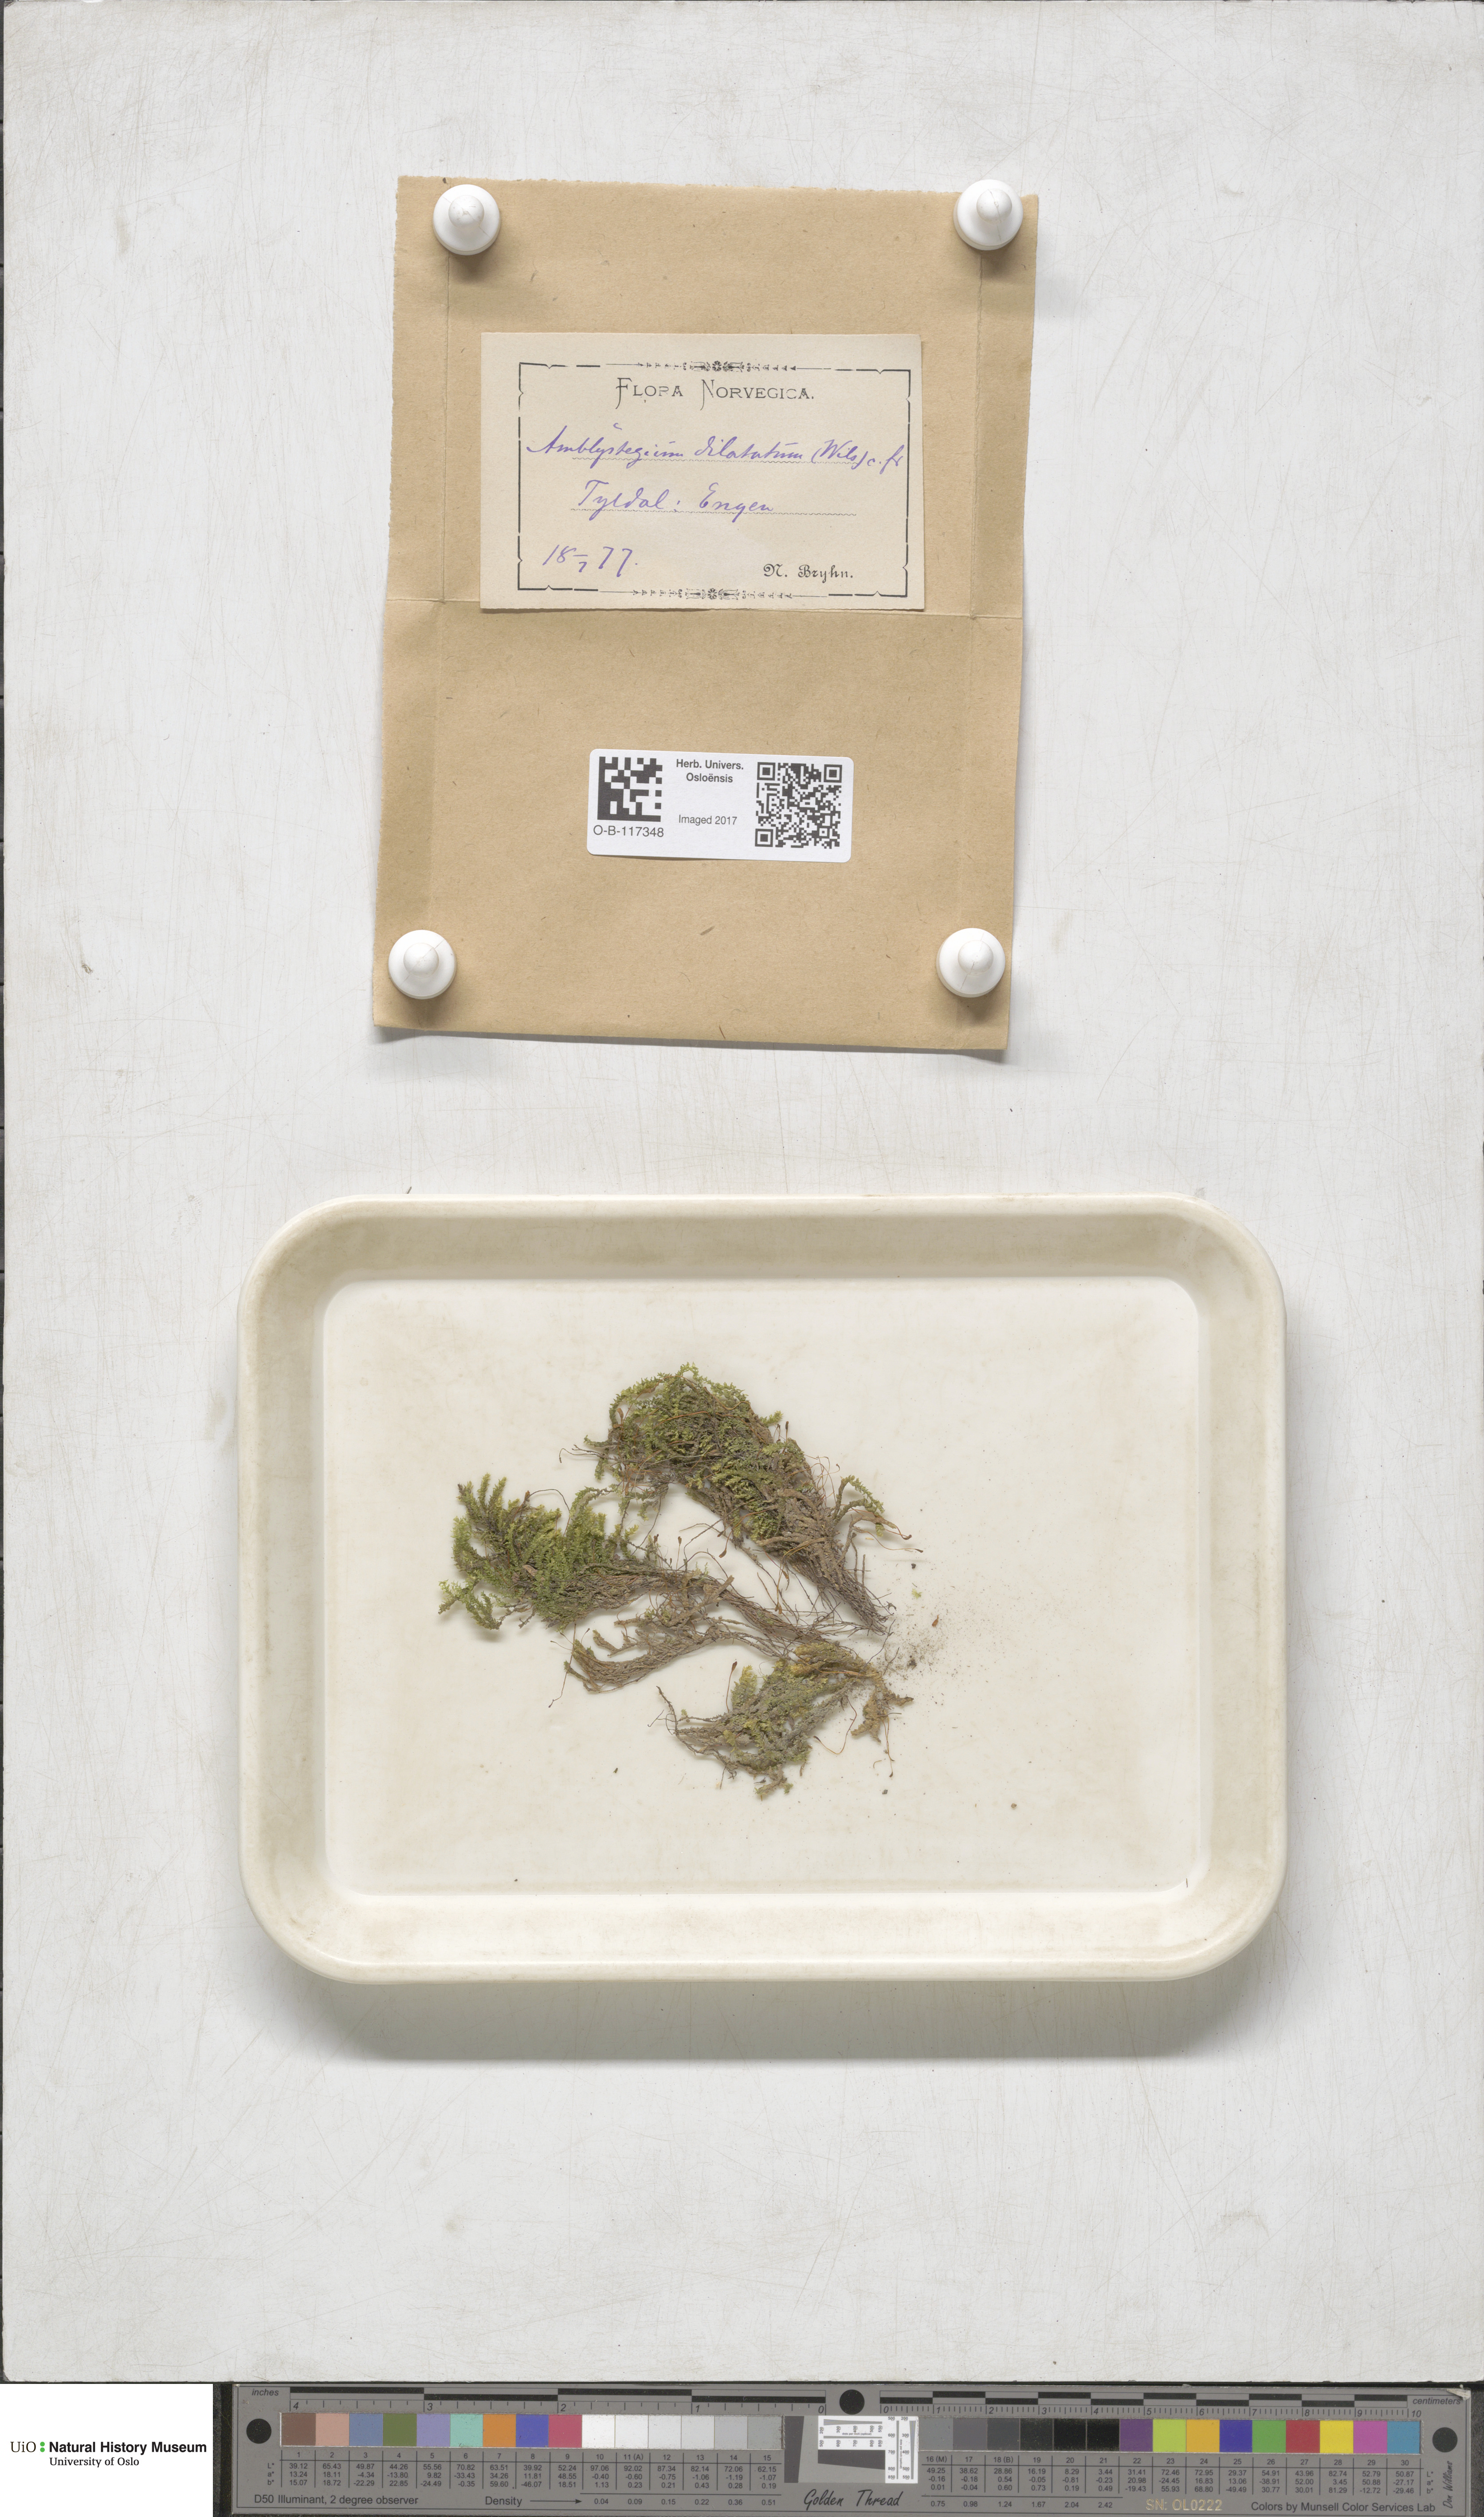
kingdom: Plantae
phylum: Bryophyta
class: Bryopsida
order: Hypnales
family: Amblystegiaceae
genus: Platyhypnum
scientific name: Platyhypnum duriusculum
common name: Broad-leaved brook-moss
